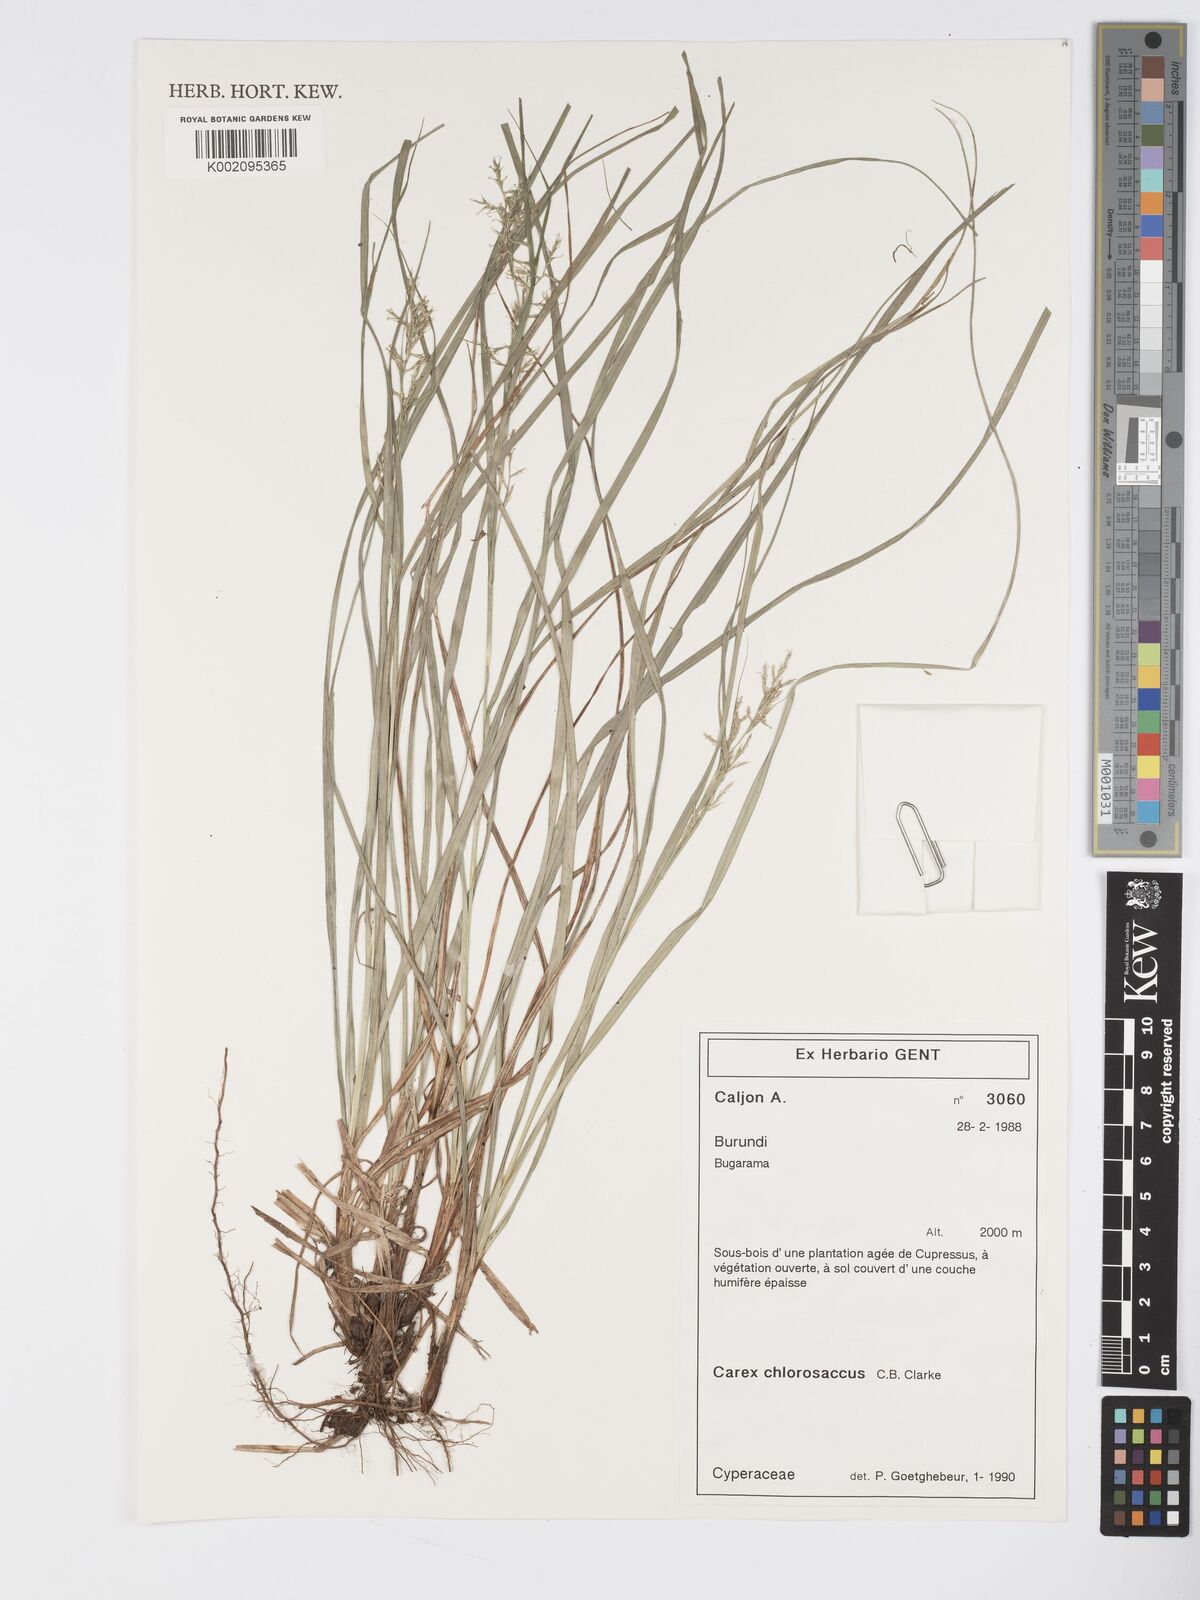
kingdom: Plantae
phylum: Tracheophyta
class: Liliopsida
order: Poales
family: Cyperaceae
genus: Carex
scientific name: Carex chlorosaccus
